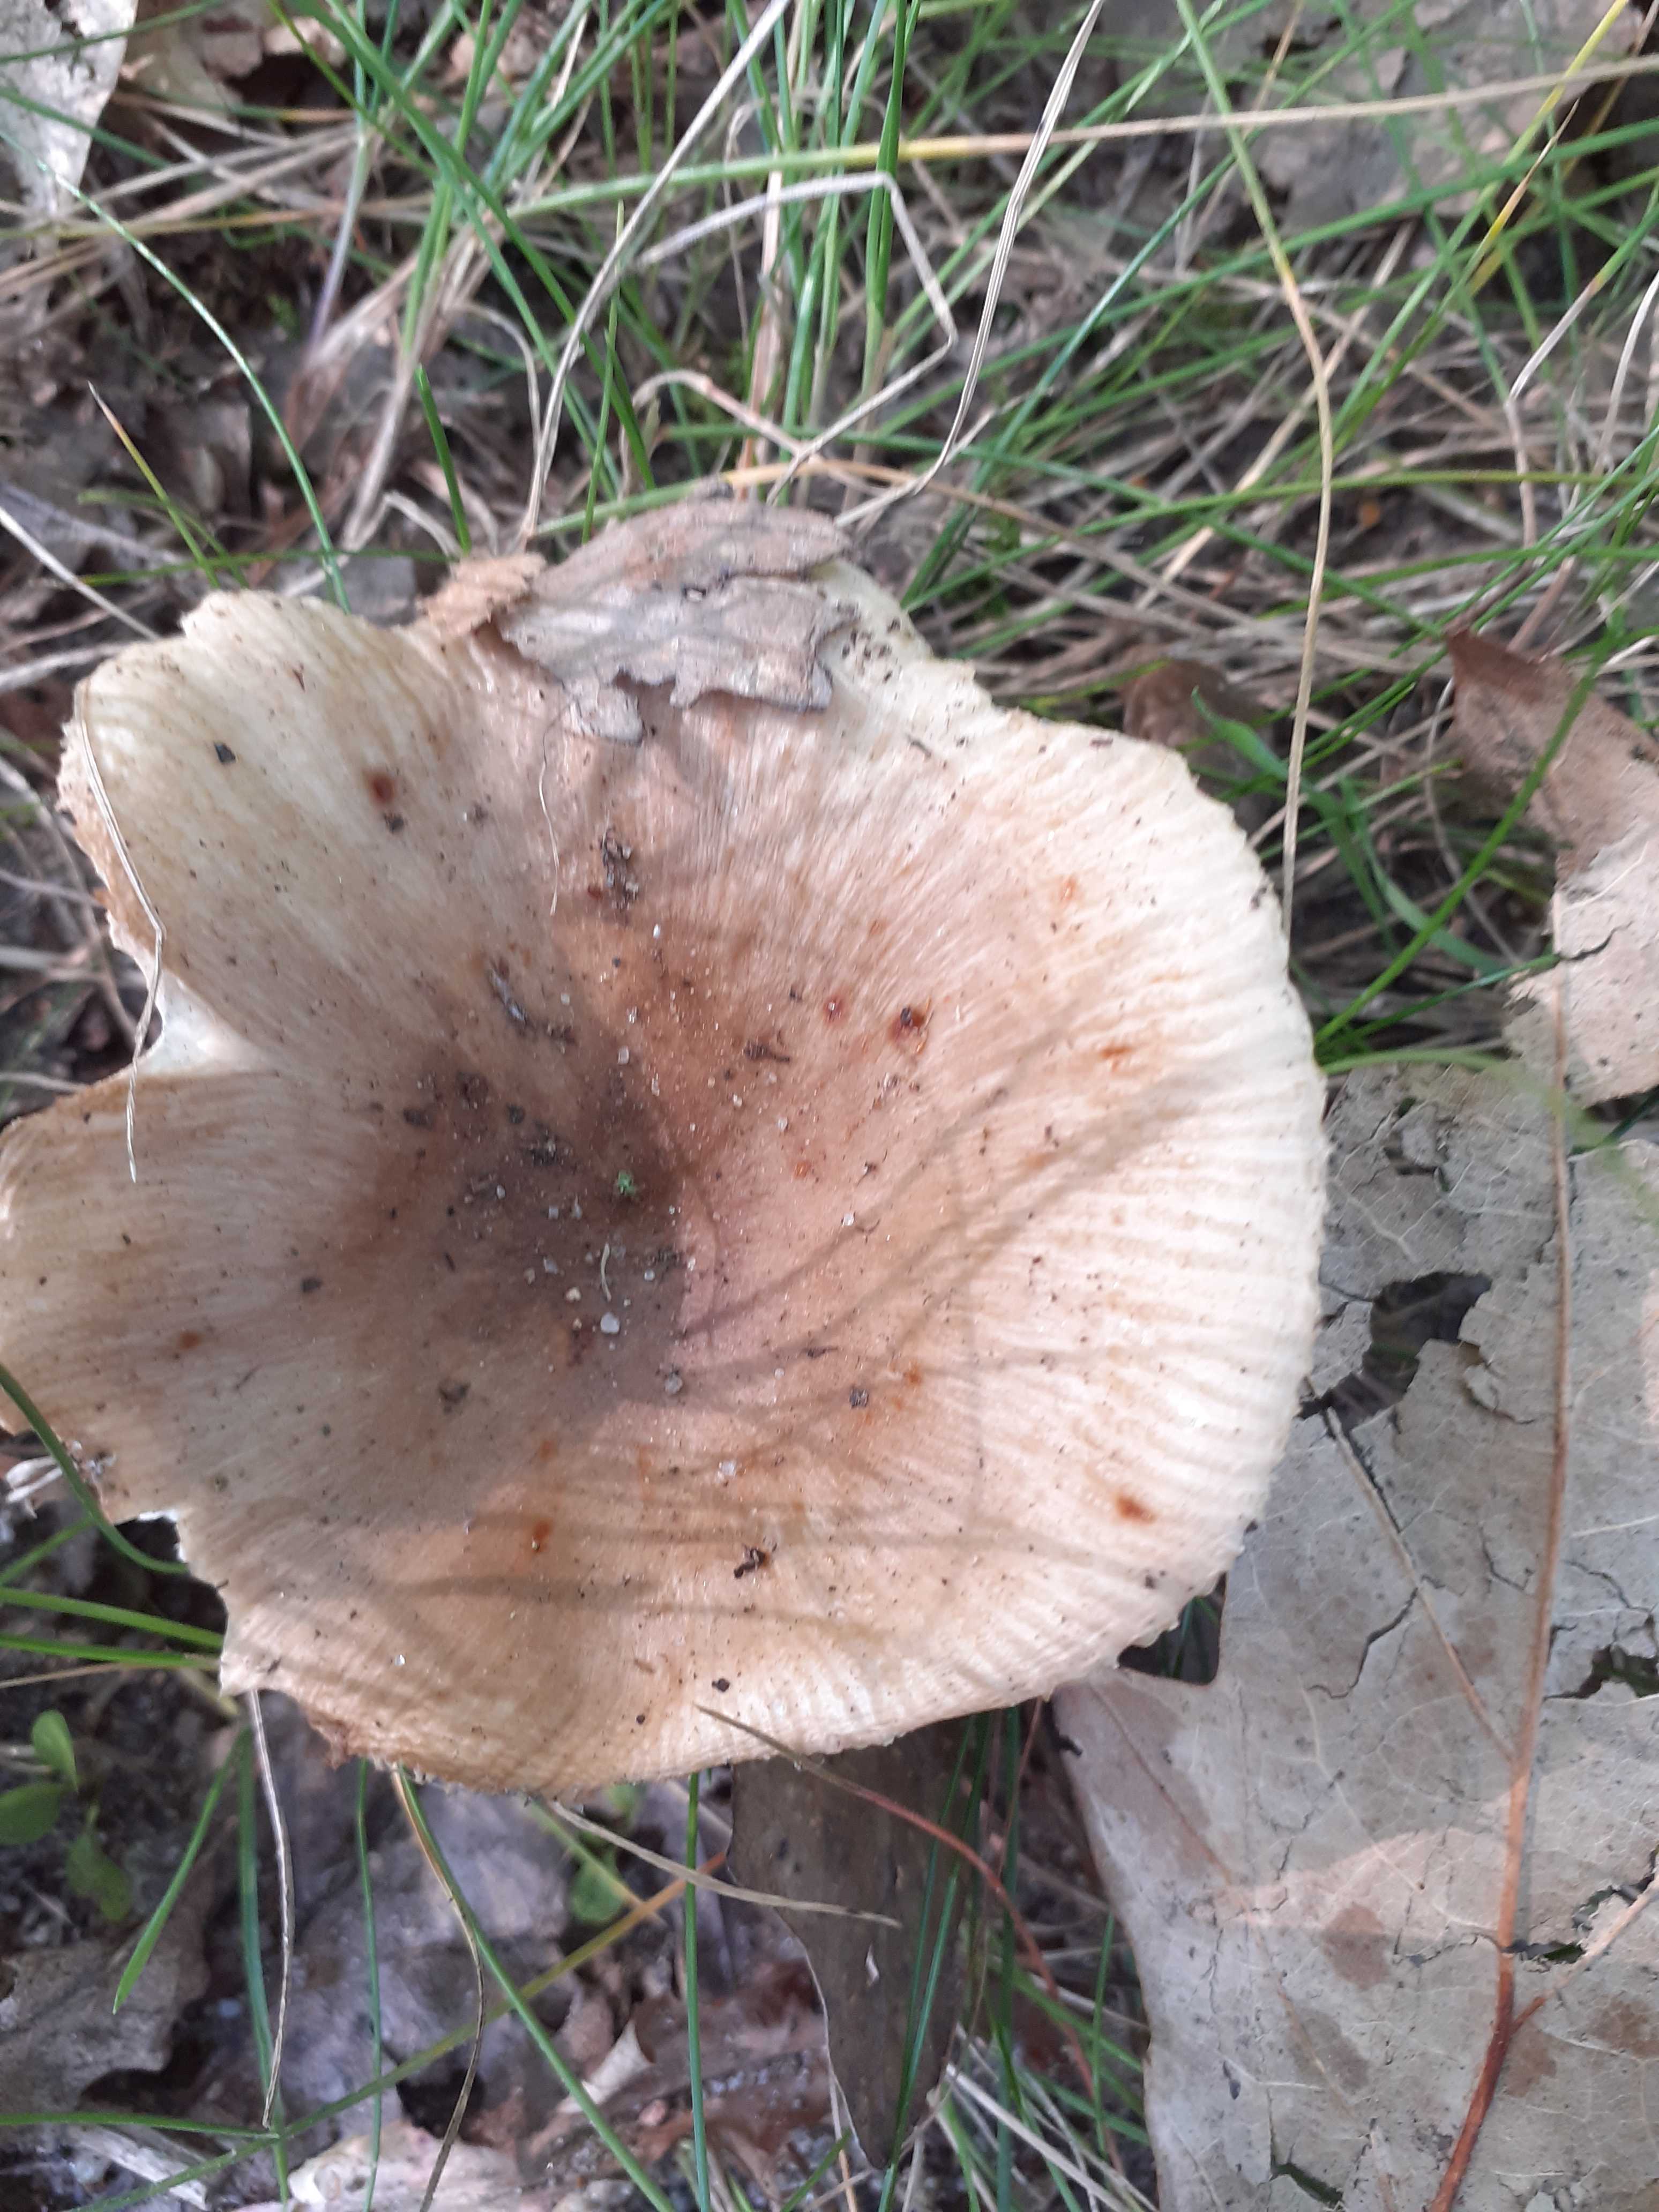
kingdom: Fungi
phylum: Basidiomycota
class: Agaricomycetes
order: Russulales
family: Russulaceae
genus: Russula
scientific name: Russula recondita
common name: mild kam-skørhat
